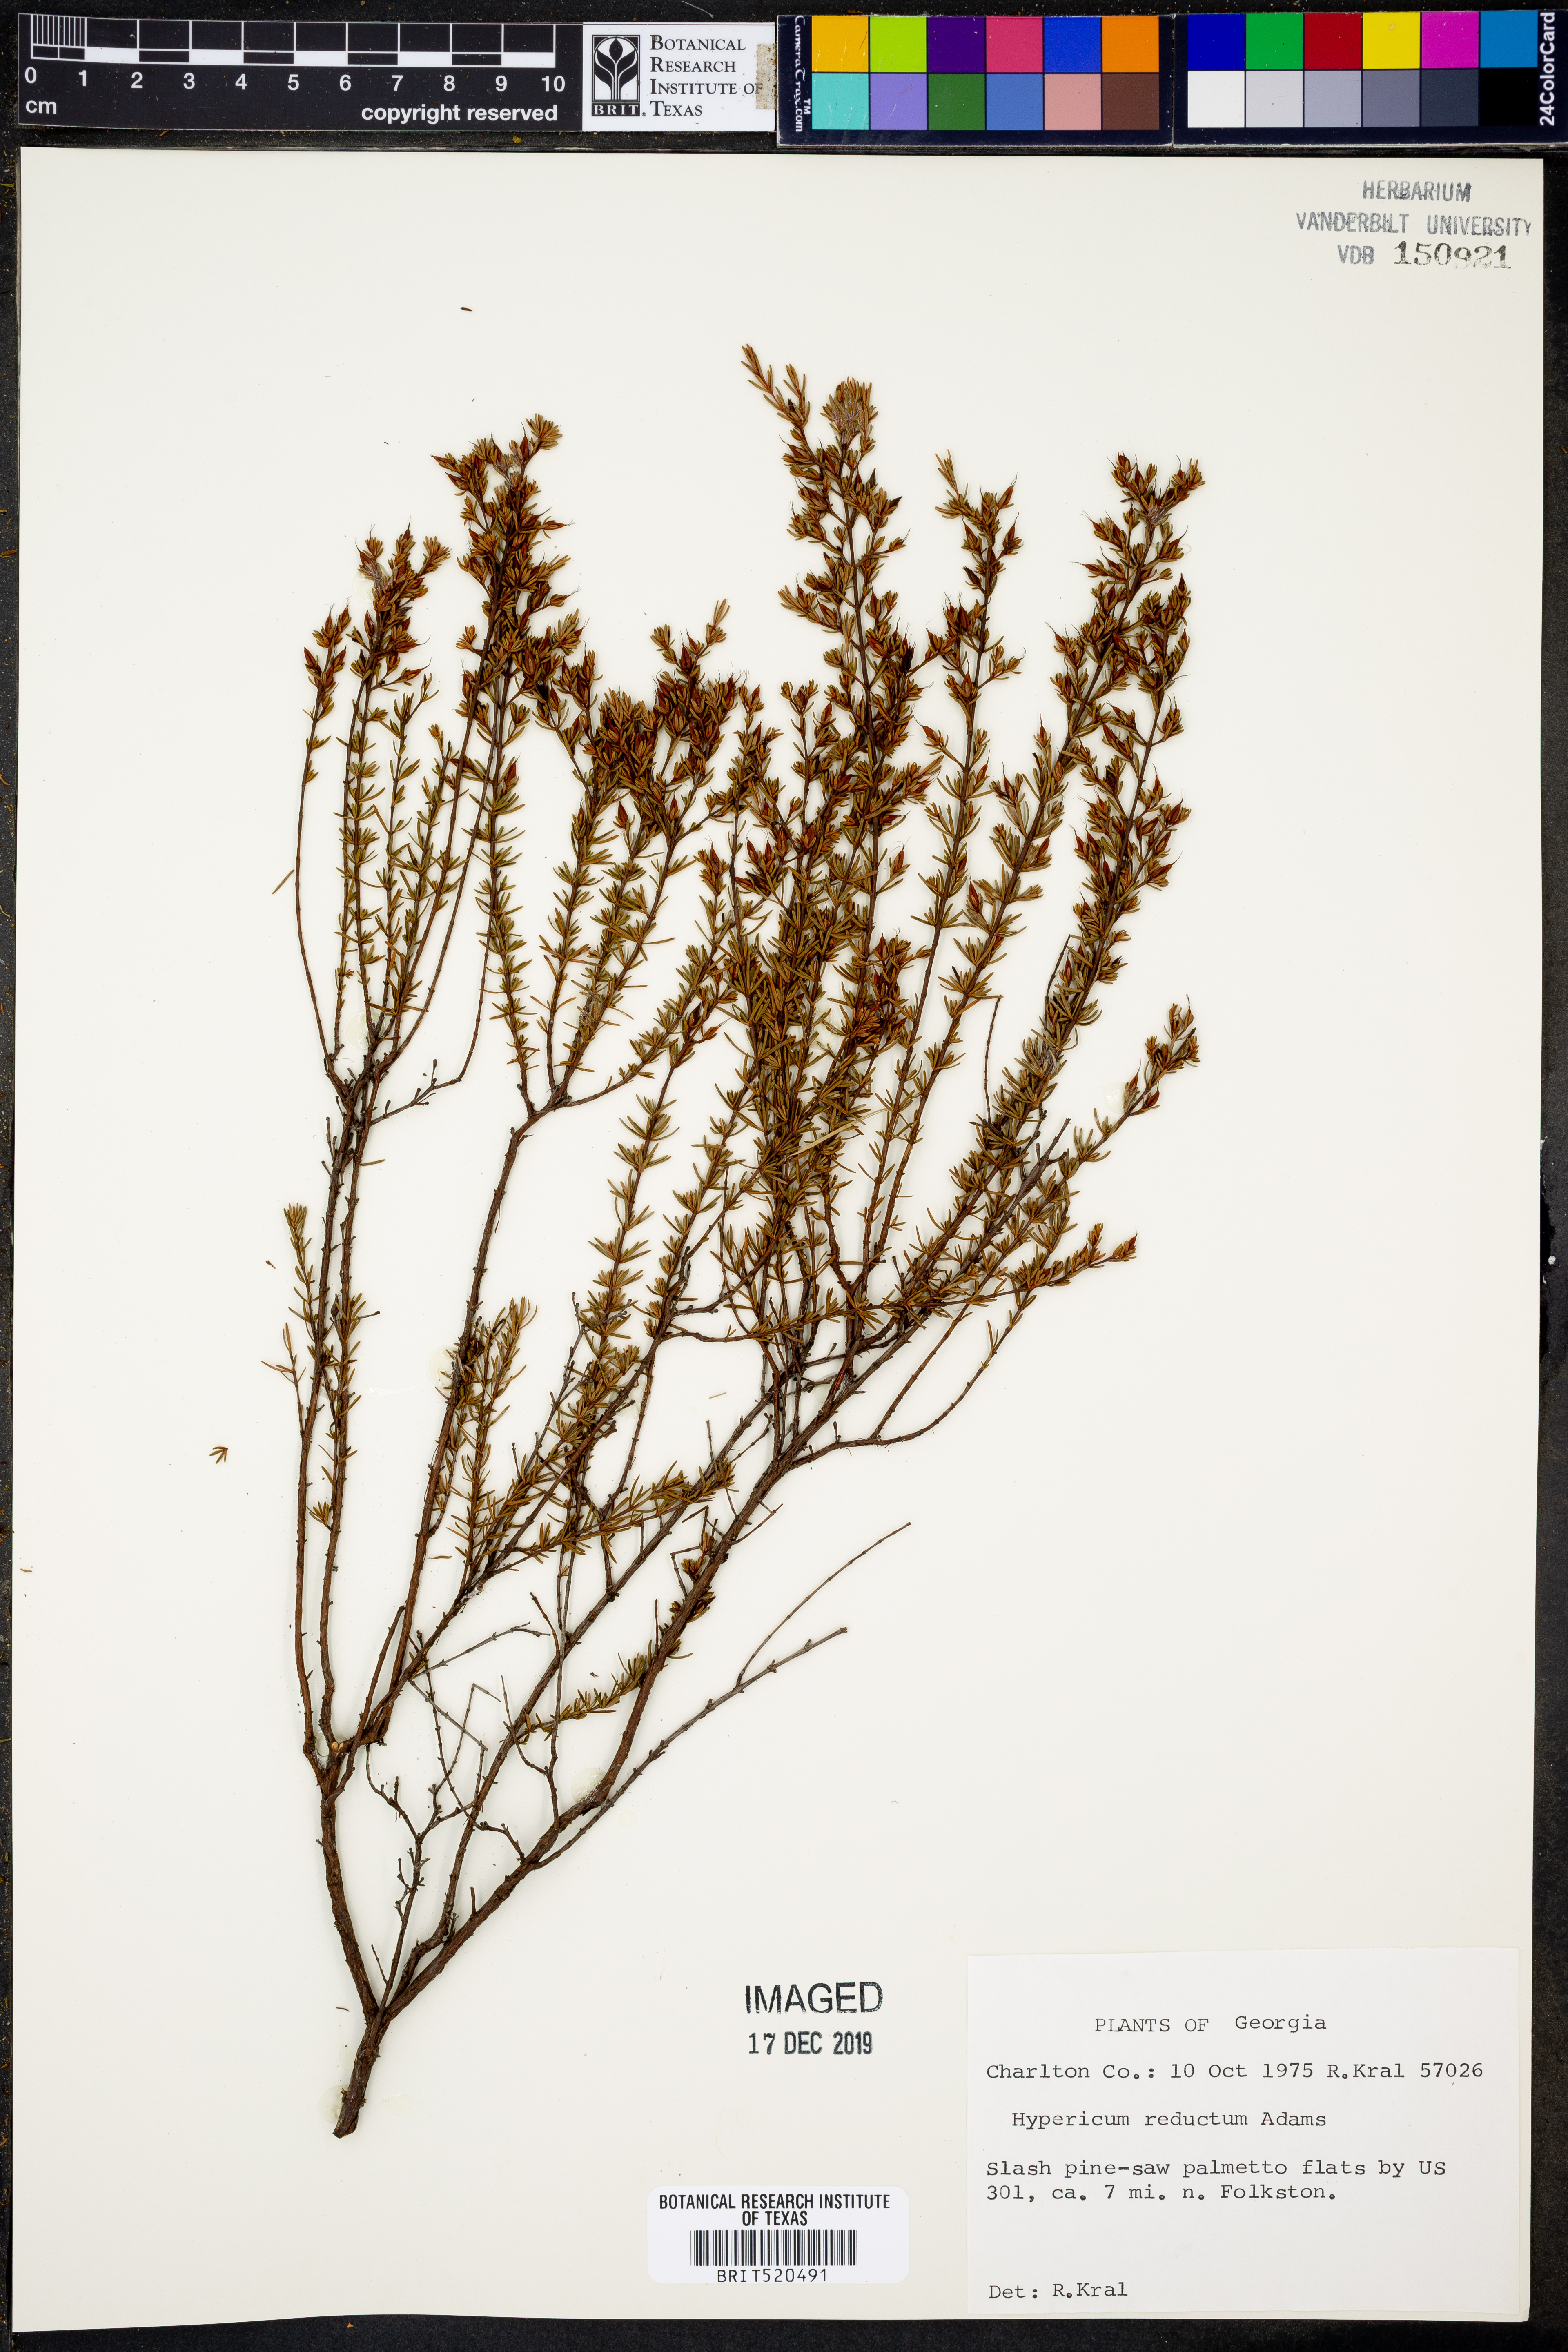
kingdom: Plantae
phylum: Tracheophyta
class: Magnoliopsida
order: Malpighiales
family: Hypericaceae
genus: Hypericum
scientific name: Hypericum tenuifolium
